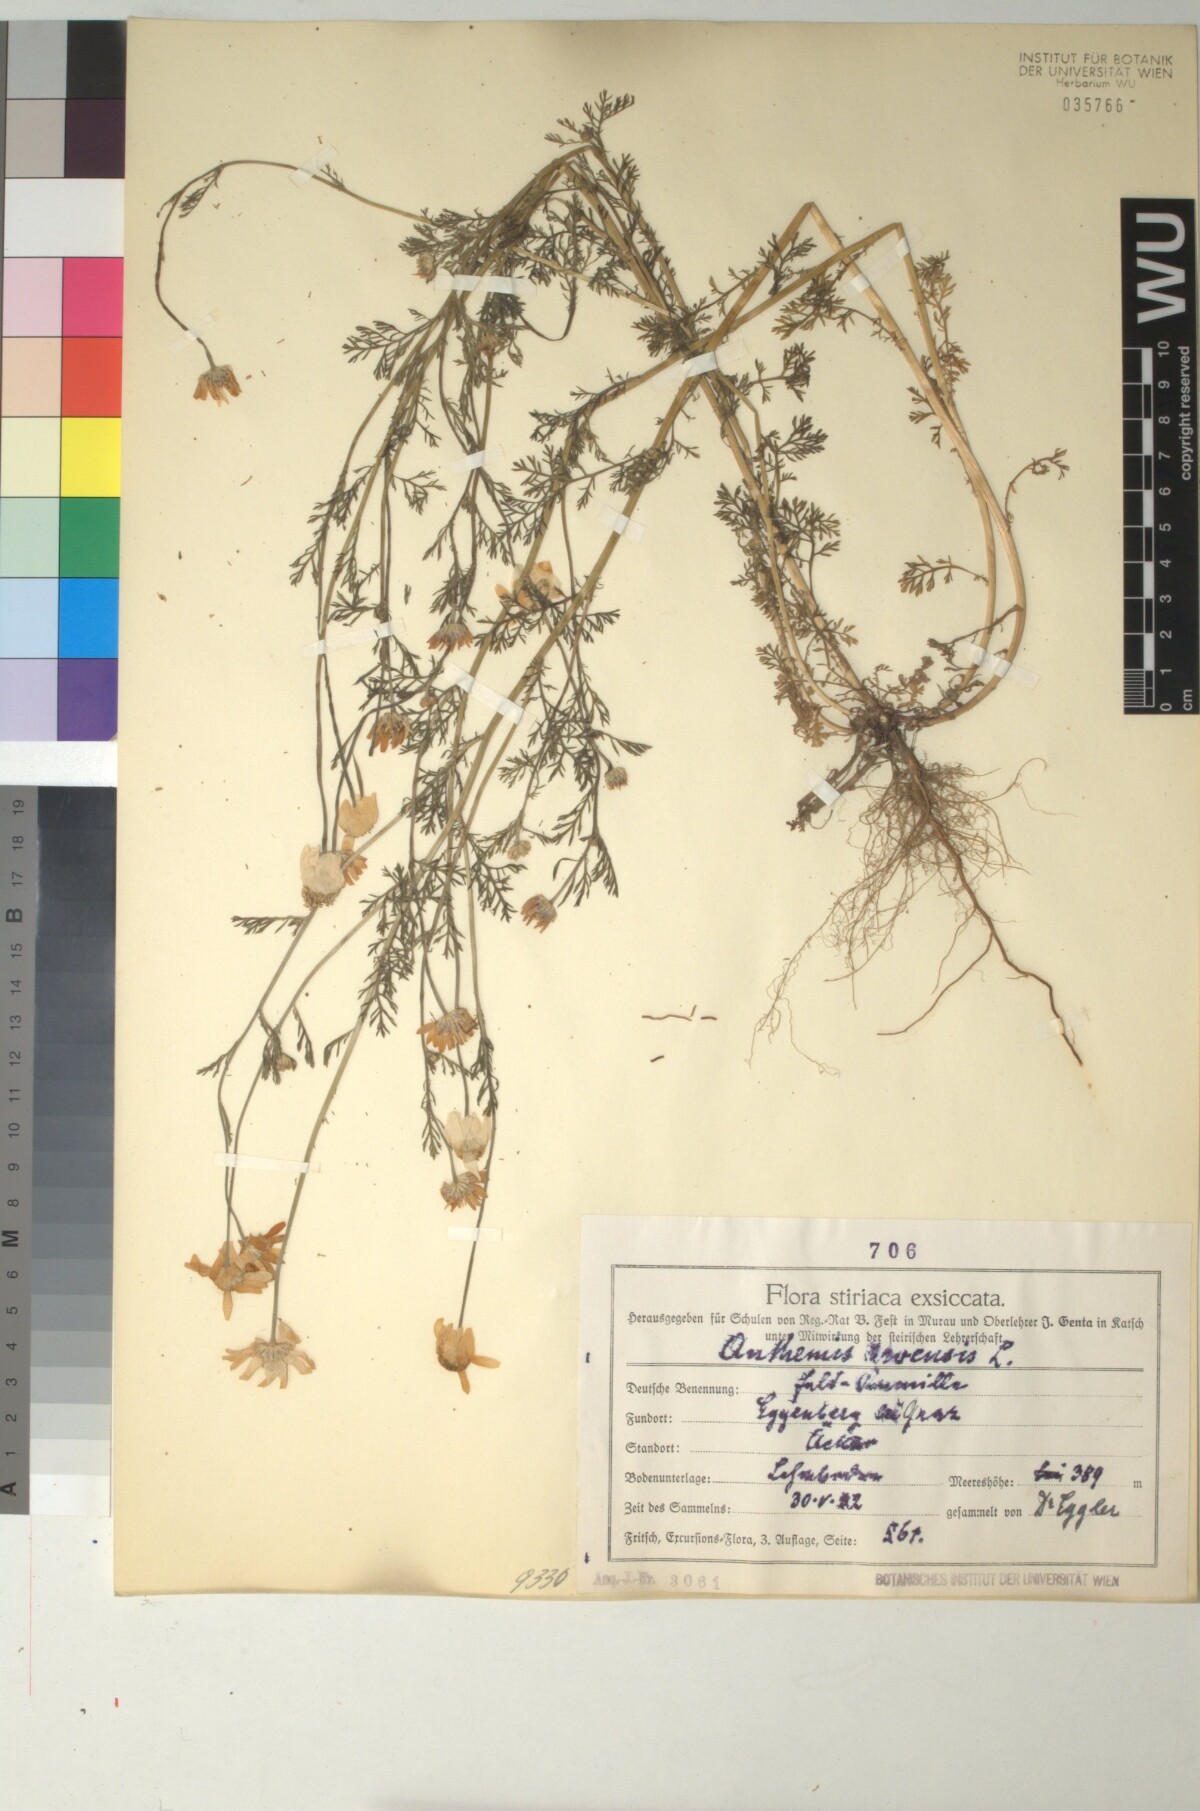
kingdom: Plantae
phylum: Tracheophyta
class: Magnoliopsida
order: Asterales
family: Asteraceae
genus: Anthemis
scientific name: Anthemis arvensis
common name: Corn chamomile
